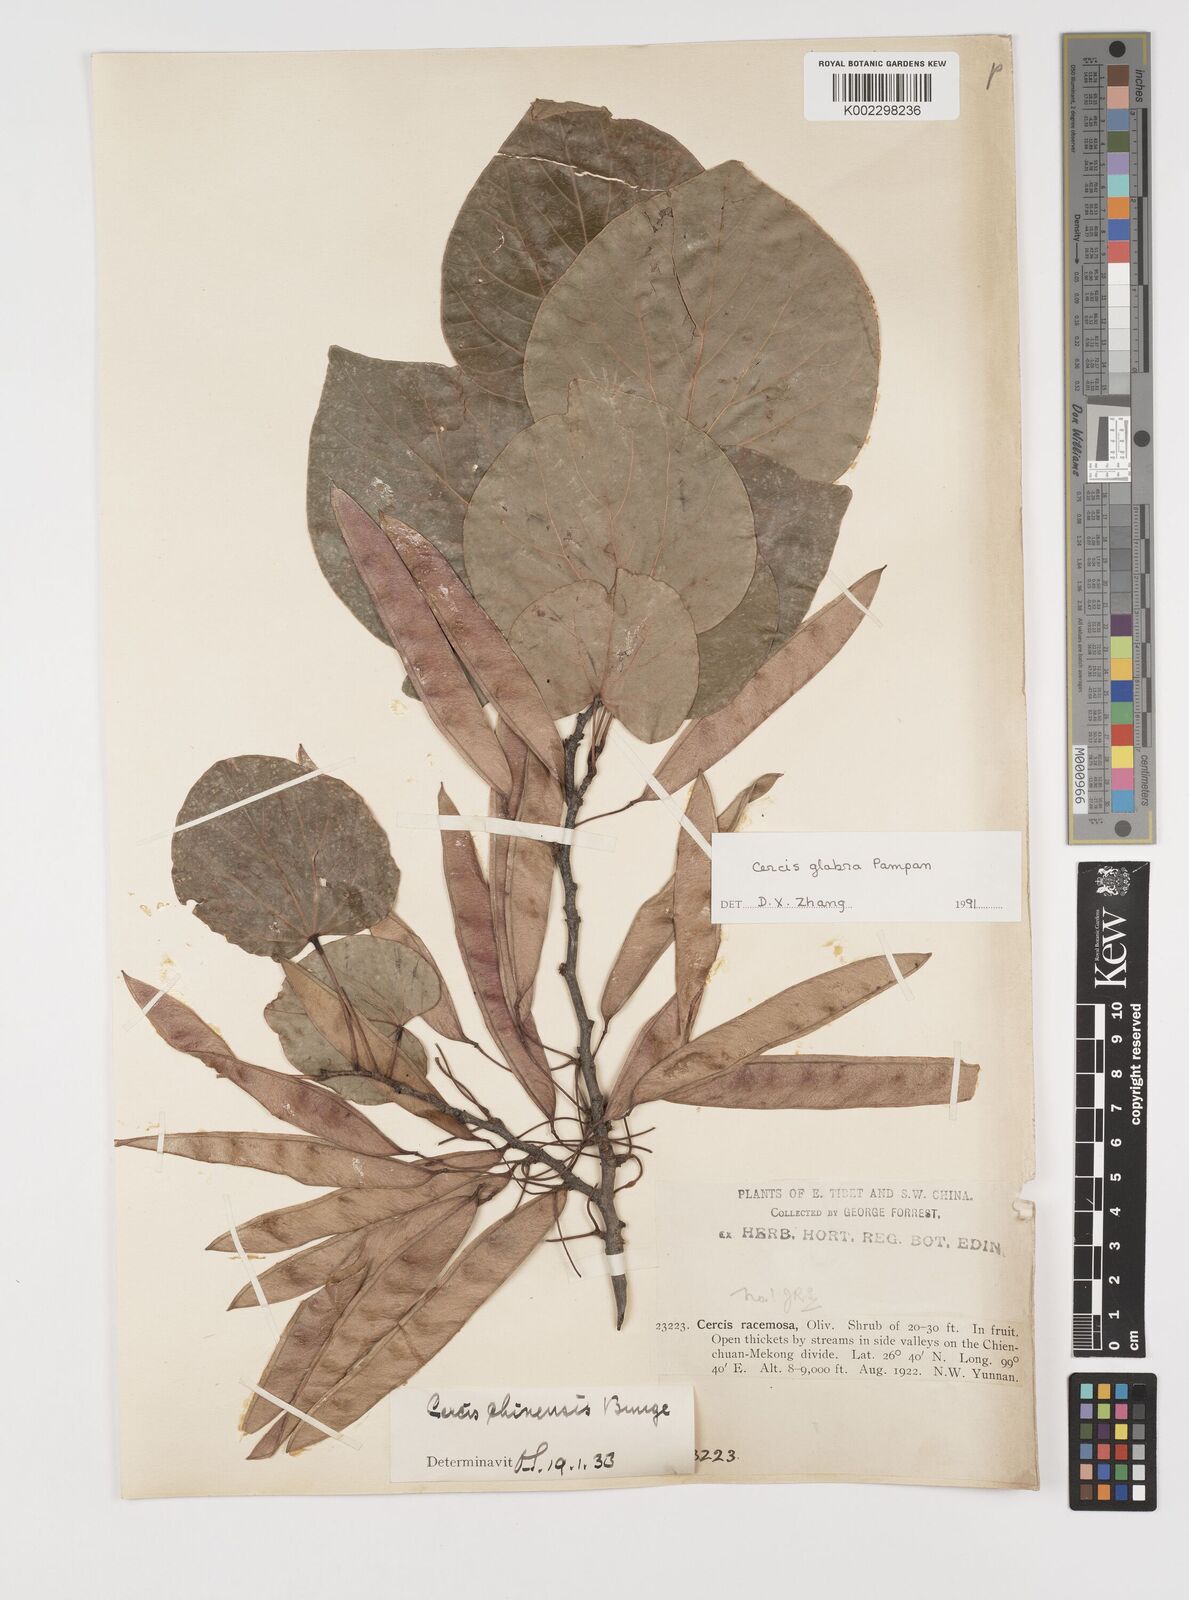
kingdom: Plantae
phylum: Tracheophyta
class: Magnoliopsida
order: Fabales
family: Fabaceae
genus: Cercis
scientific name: Cercis glabra
